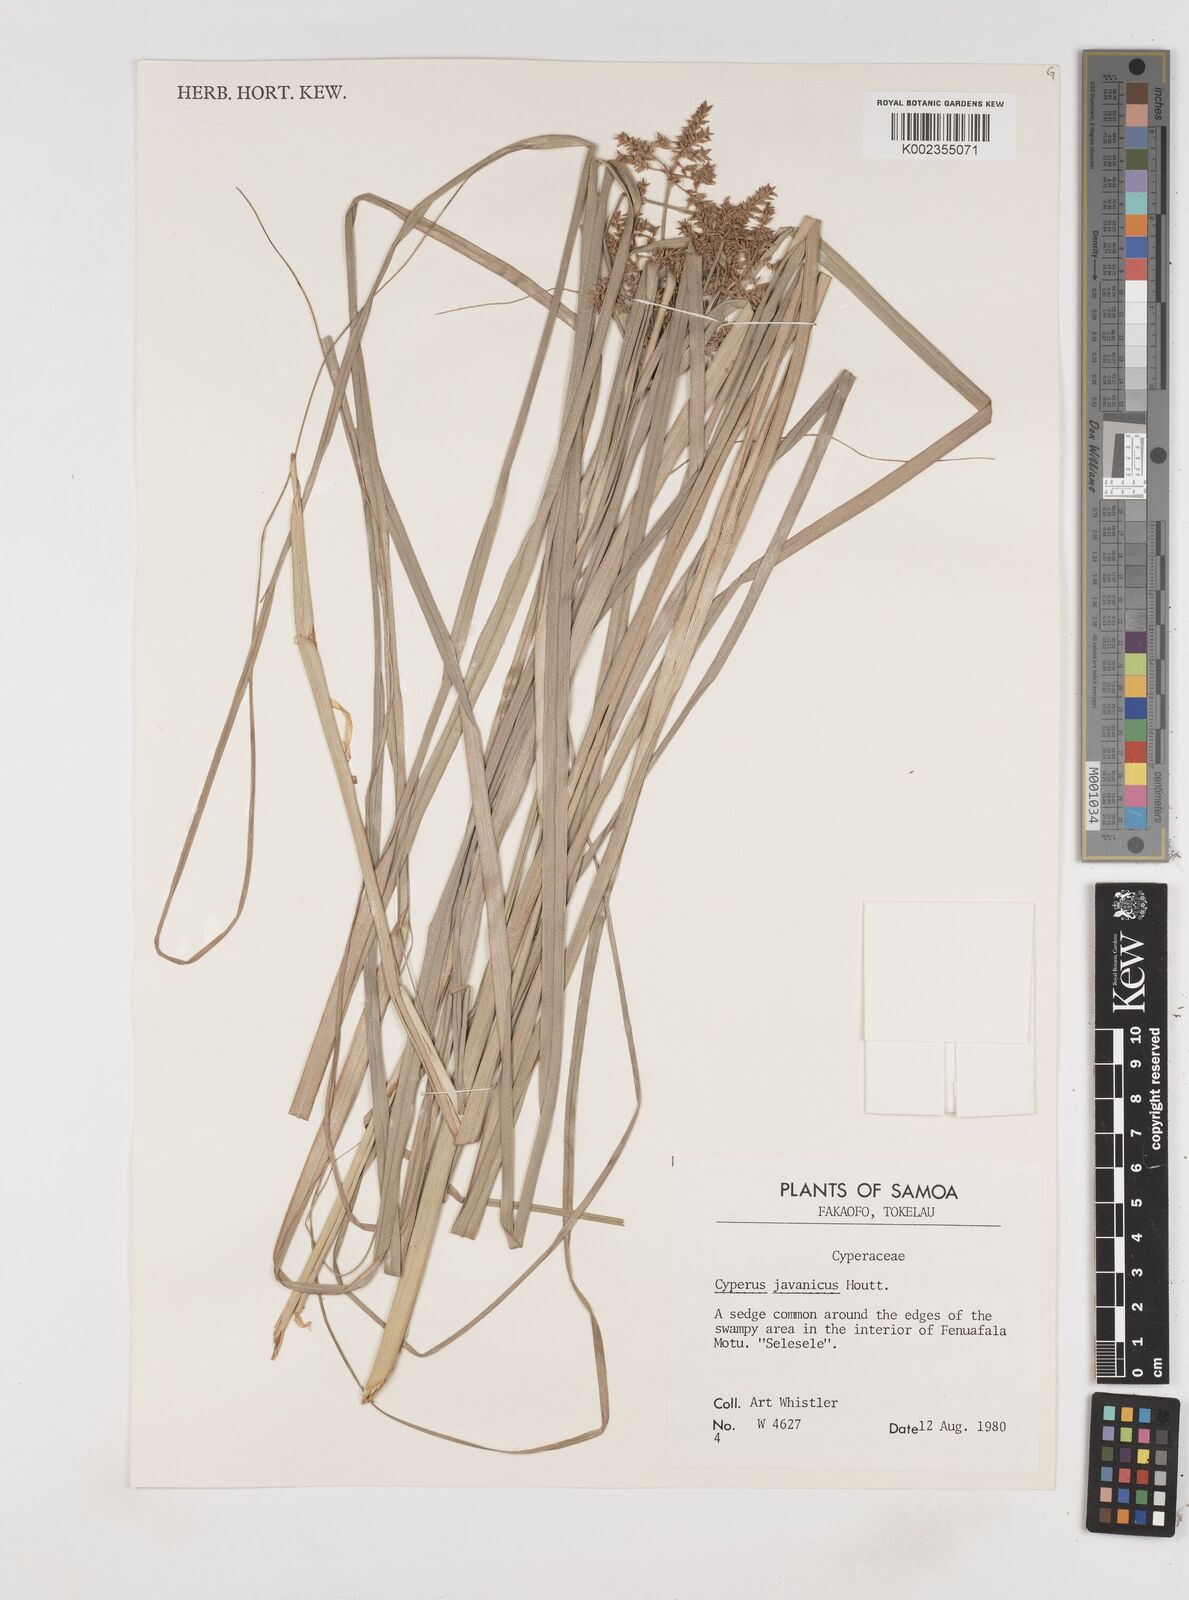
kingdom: Plantae
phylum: Tracheophyta
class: Liliopsida
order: Poales
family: Cyperaceae
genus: Cyperus
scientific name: Cyperus javanicus
